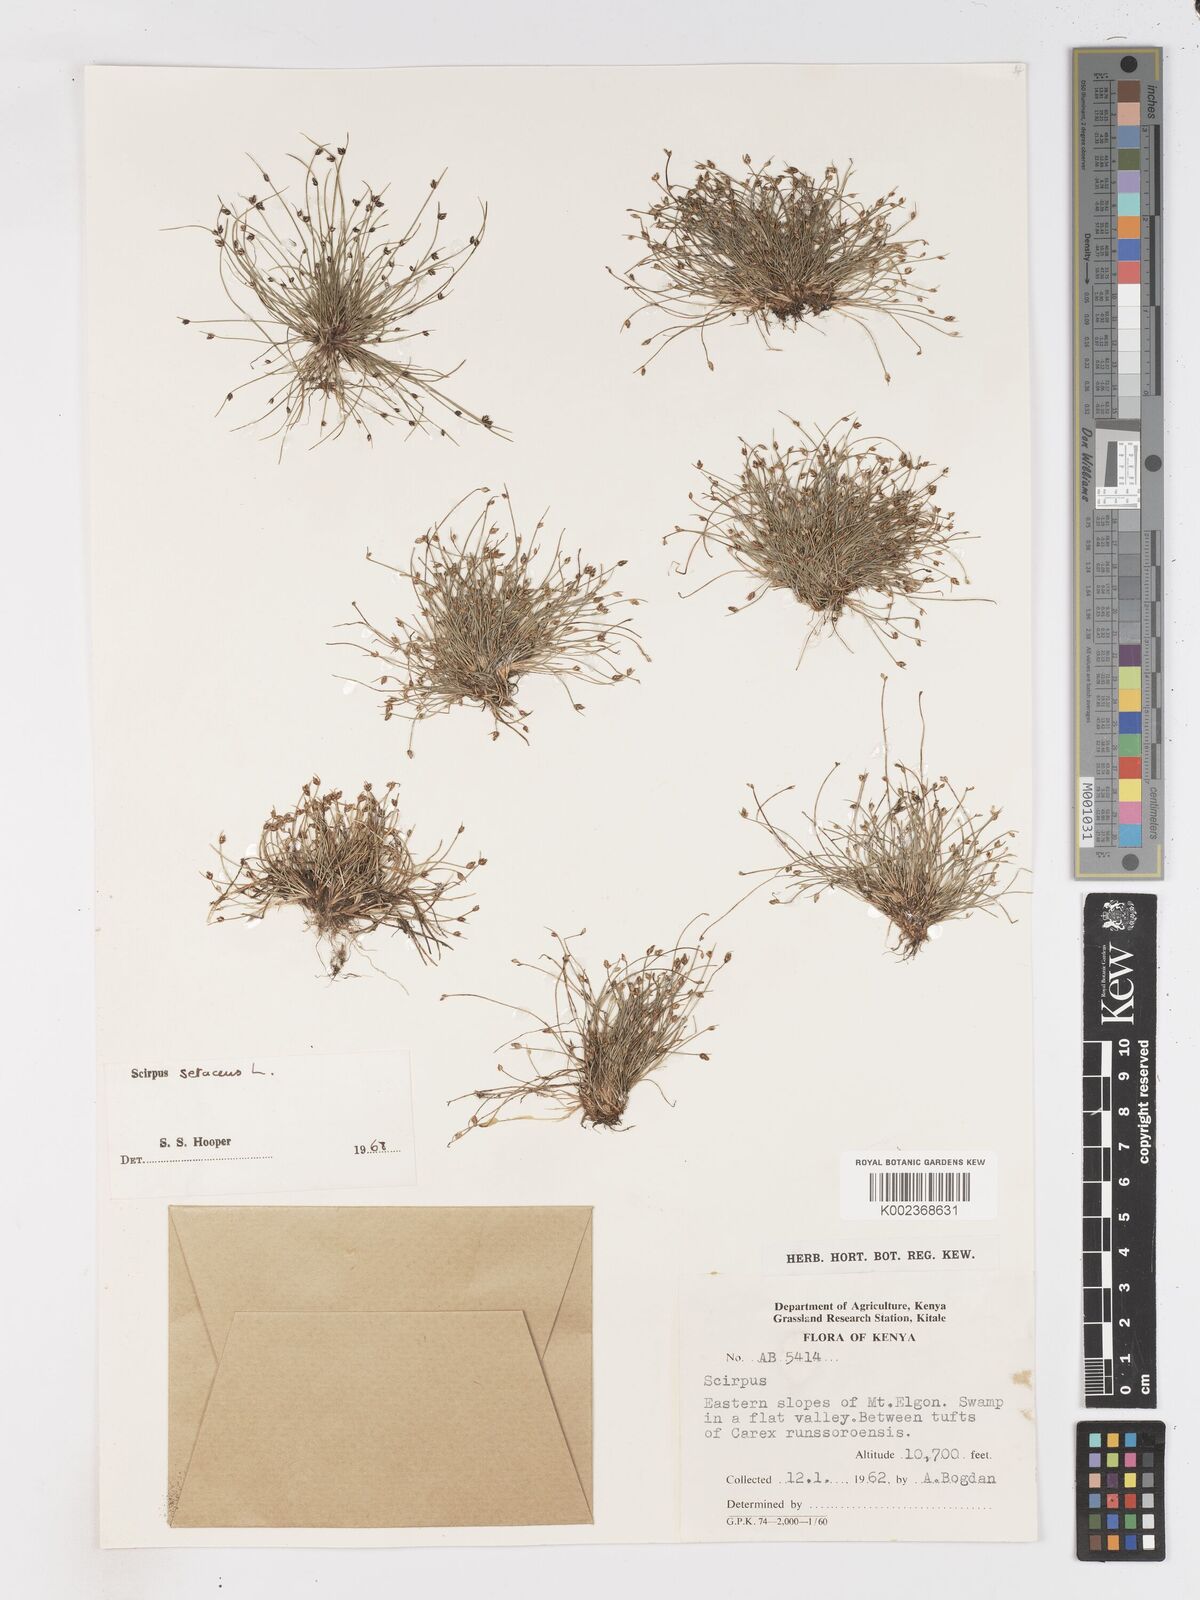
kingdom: Plantae
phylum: Tracheophyta
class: Liliopsida
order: Poales
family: Cyperaceae
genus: Isolepis
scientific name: Isolepis setacea
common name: Bristle club-rush
